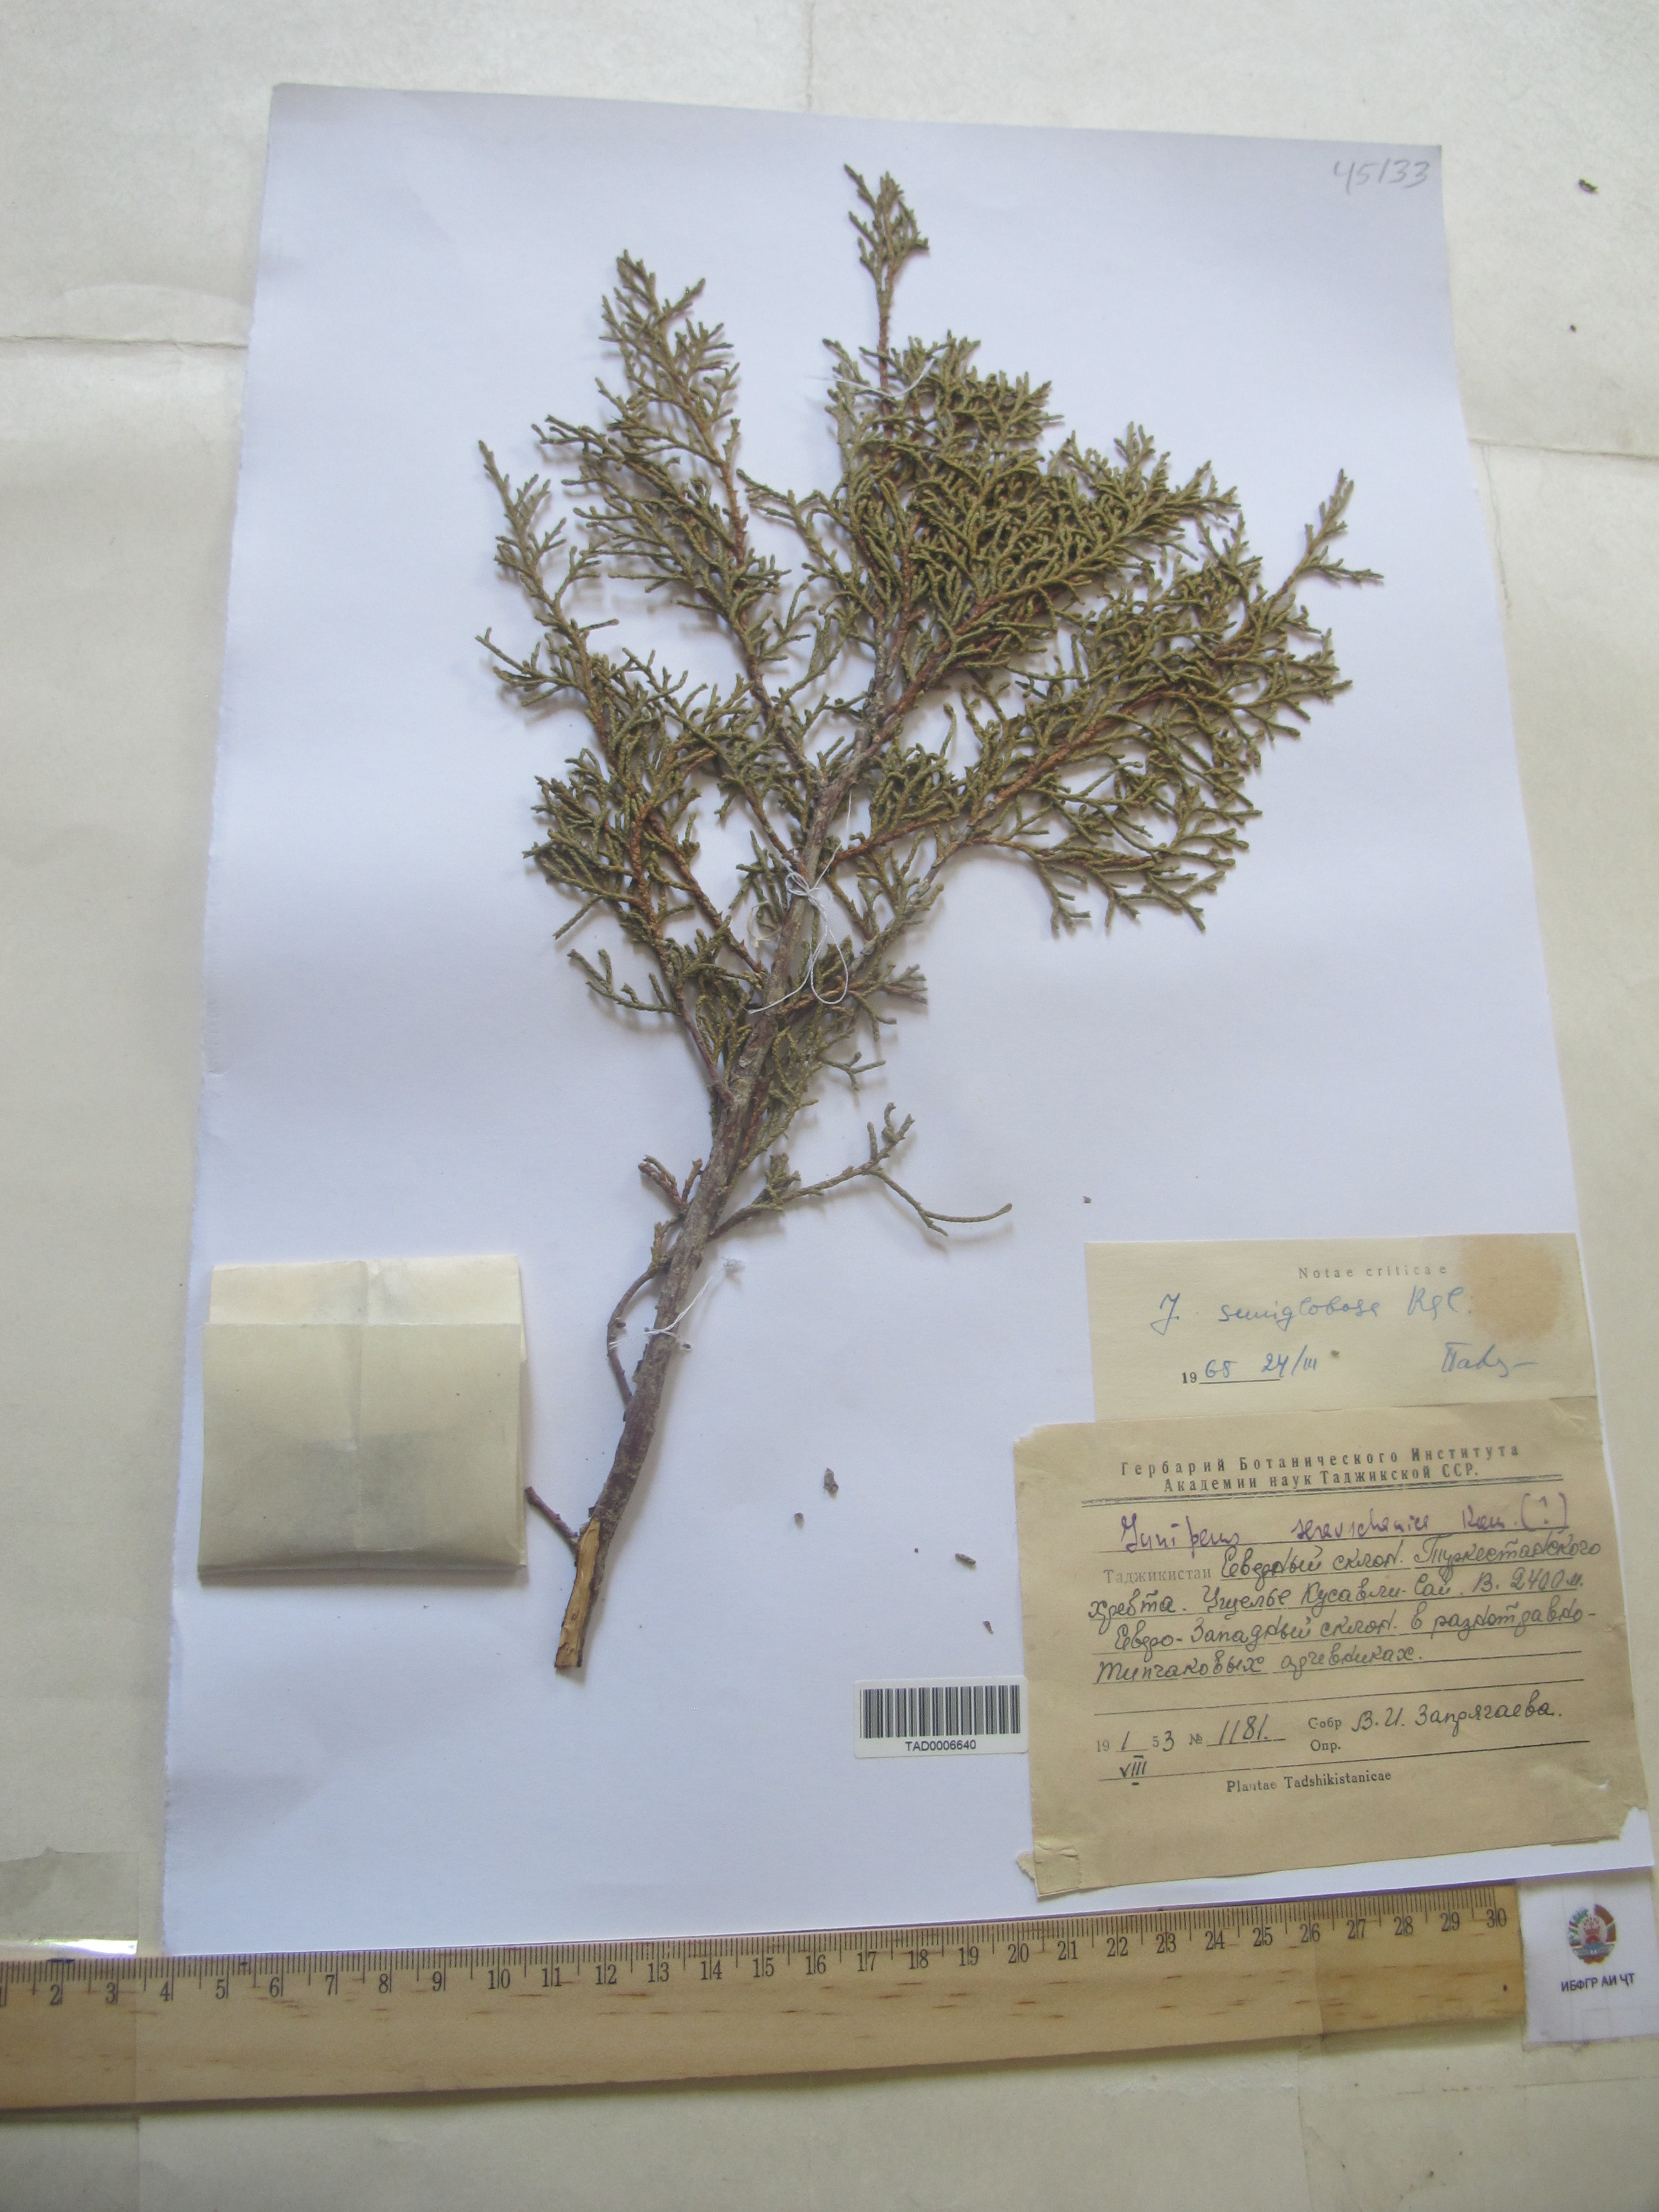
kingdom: Plantae
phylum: Tracheophyta
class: Pinopsida
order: Pinales
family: Cupressaceae
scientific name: Cupressaceae
